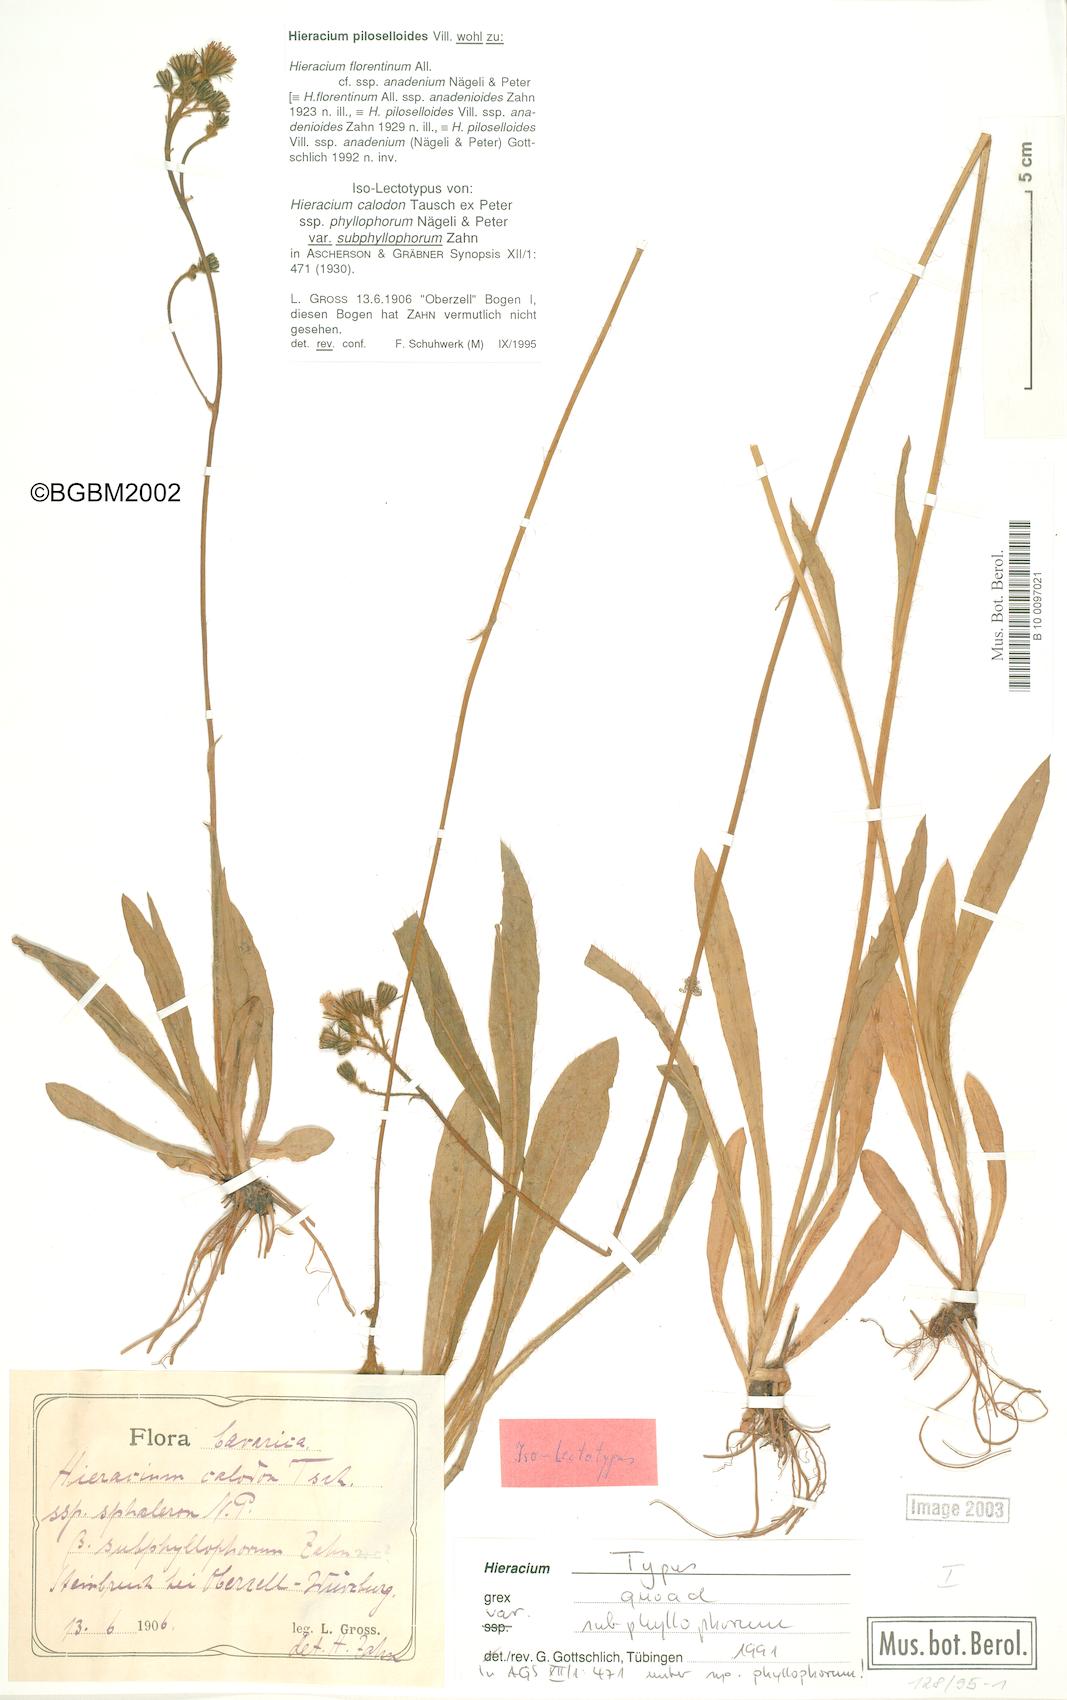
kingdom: Plantae
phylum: Tracheophyta
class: Magnoliopsida
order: Asterales
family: Asteraceae
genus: Pilosella
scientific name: Pilosella
